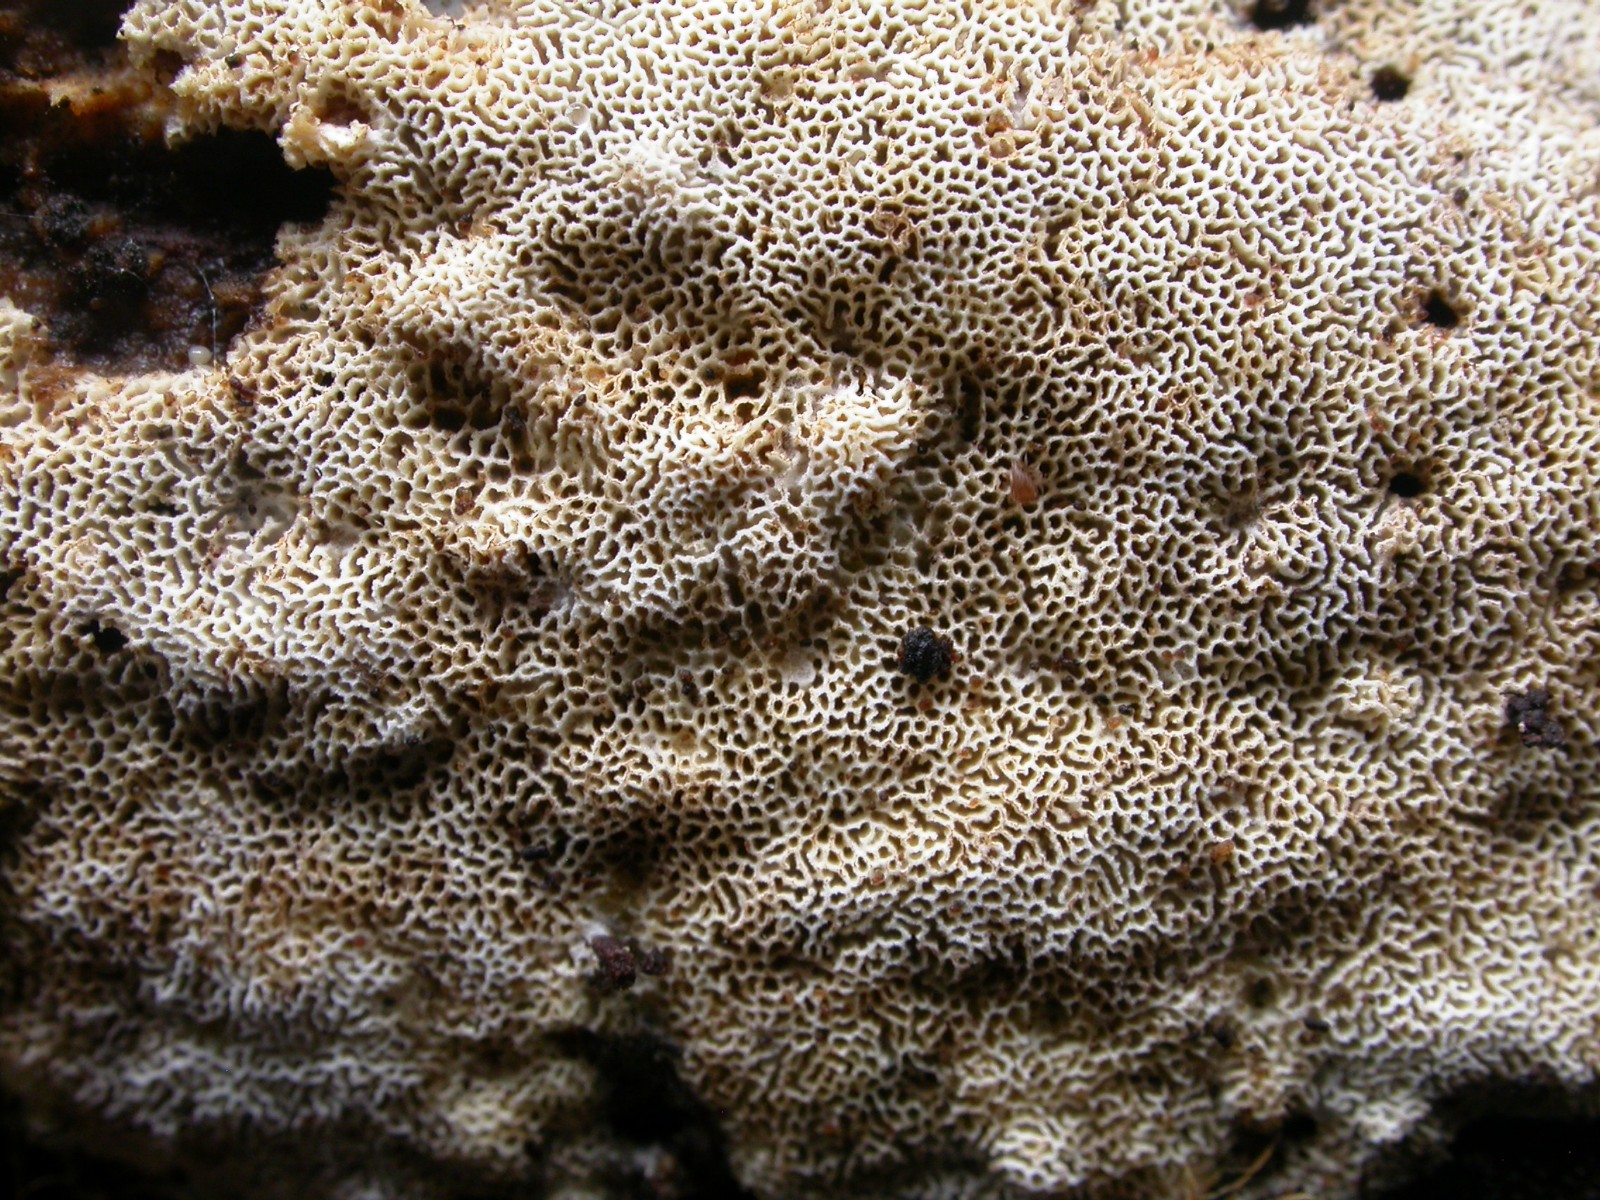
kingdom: Fungi
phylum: Basidiomycota
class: Agaricomycetes
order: Hymenochaetales
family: Schizoporaceae
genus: Xylodon
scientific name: Xylodon subtropicus
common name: labyrint-tandsvamp
